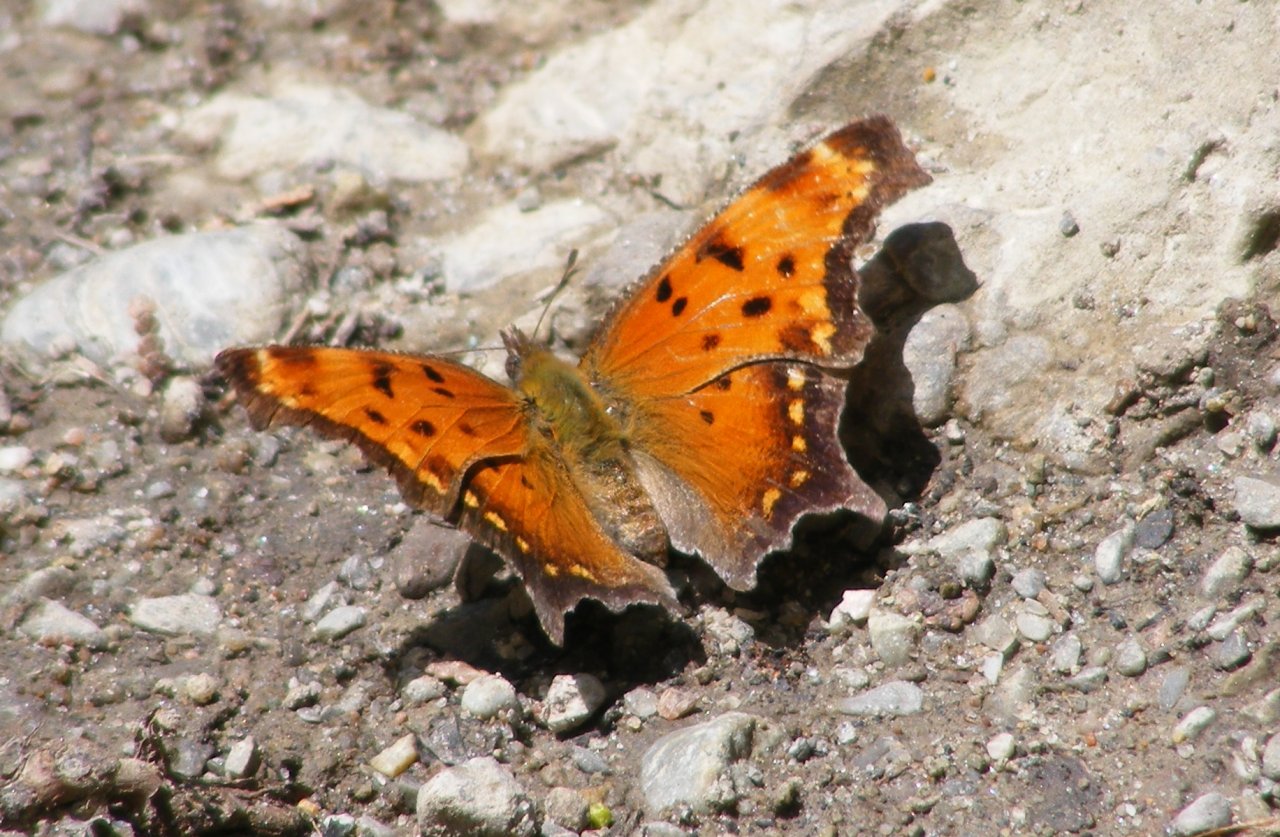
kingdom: Animalia
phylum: Arthropoda
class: Insecta
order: Lepidoptera
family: Nymphalidae
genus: Polygonia
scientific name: Polygonia progne
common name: Gray Comma
